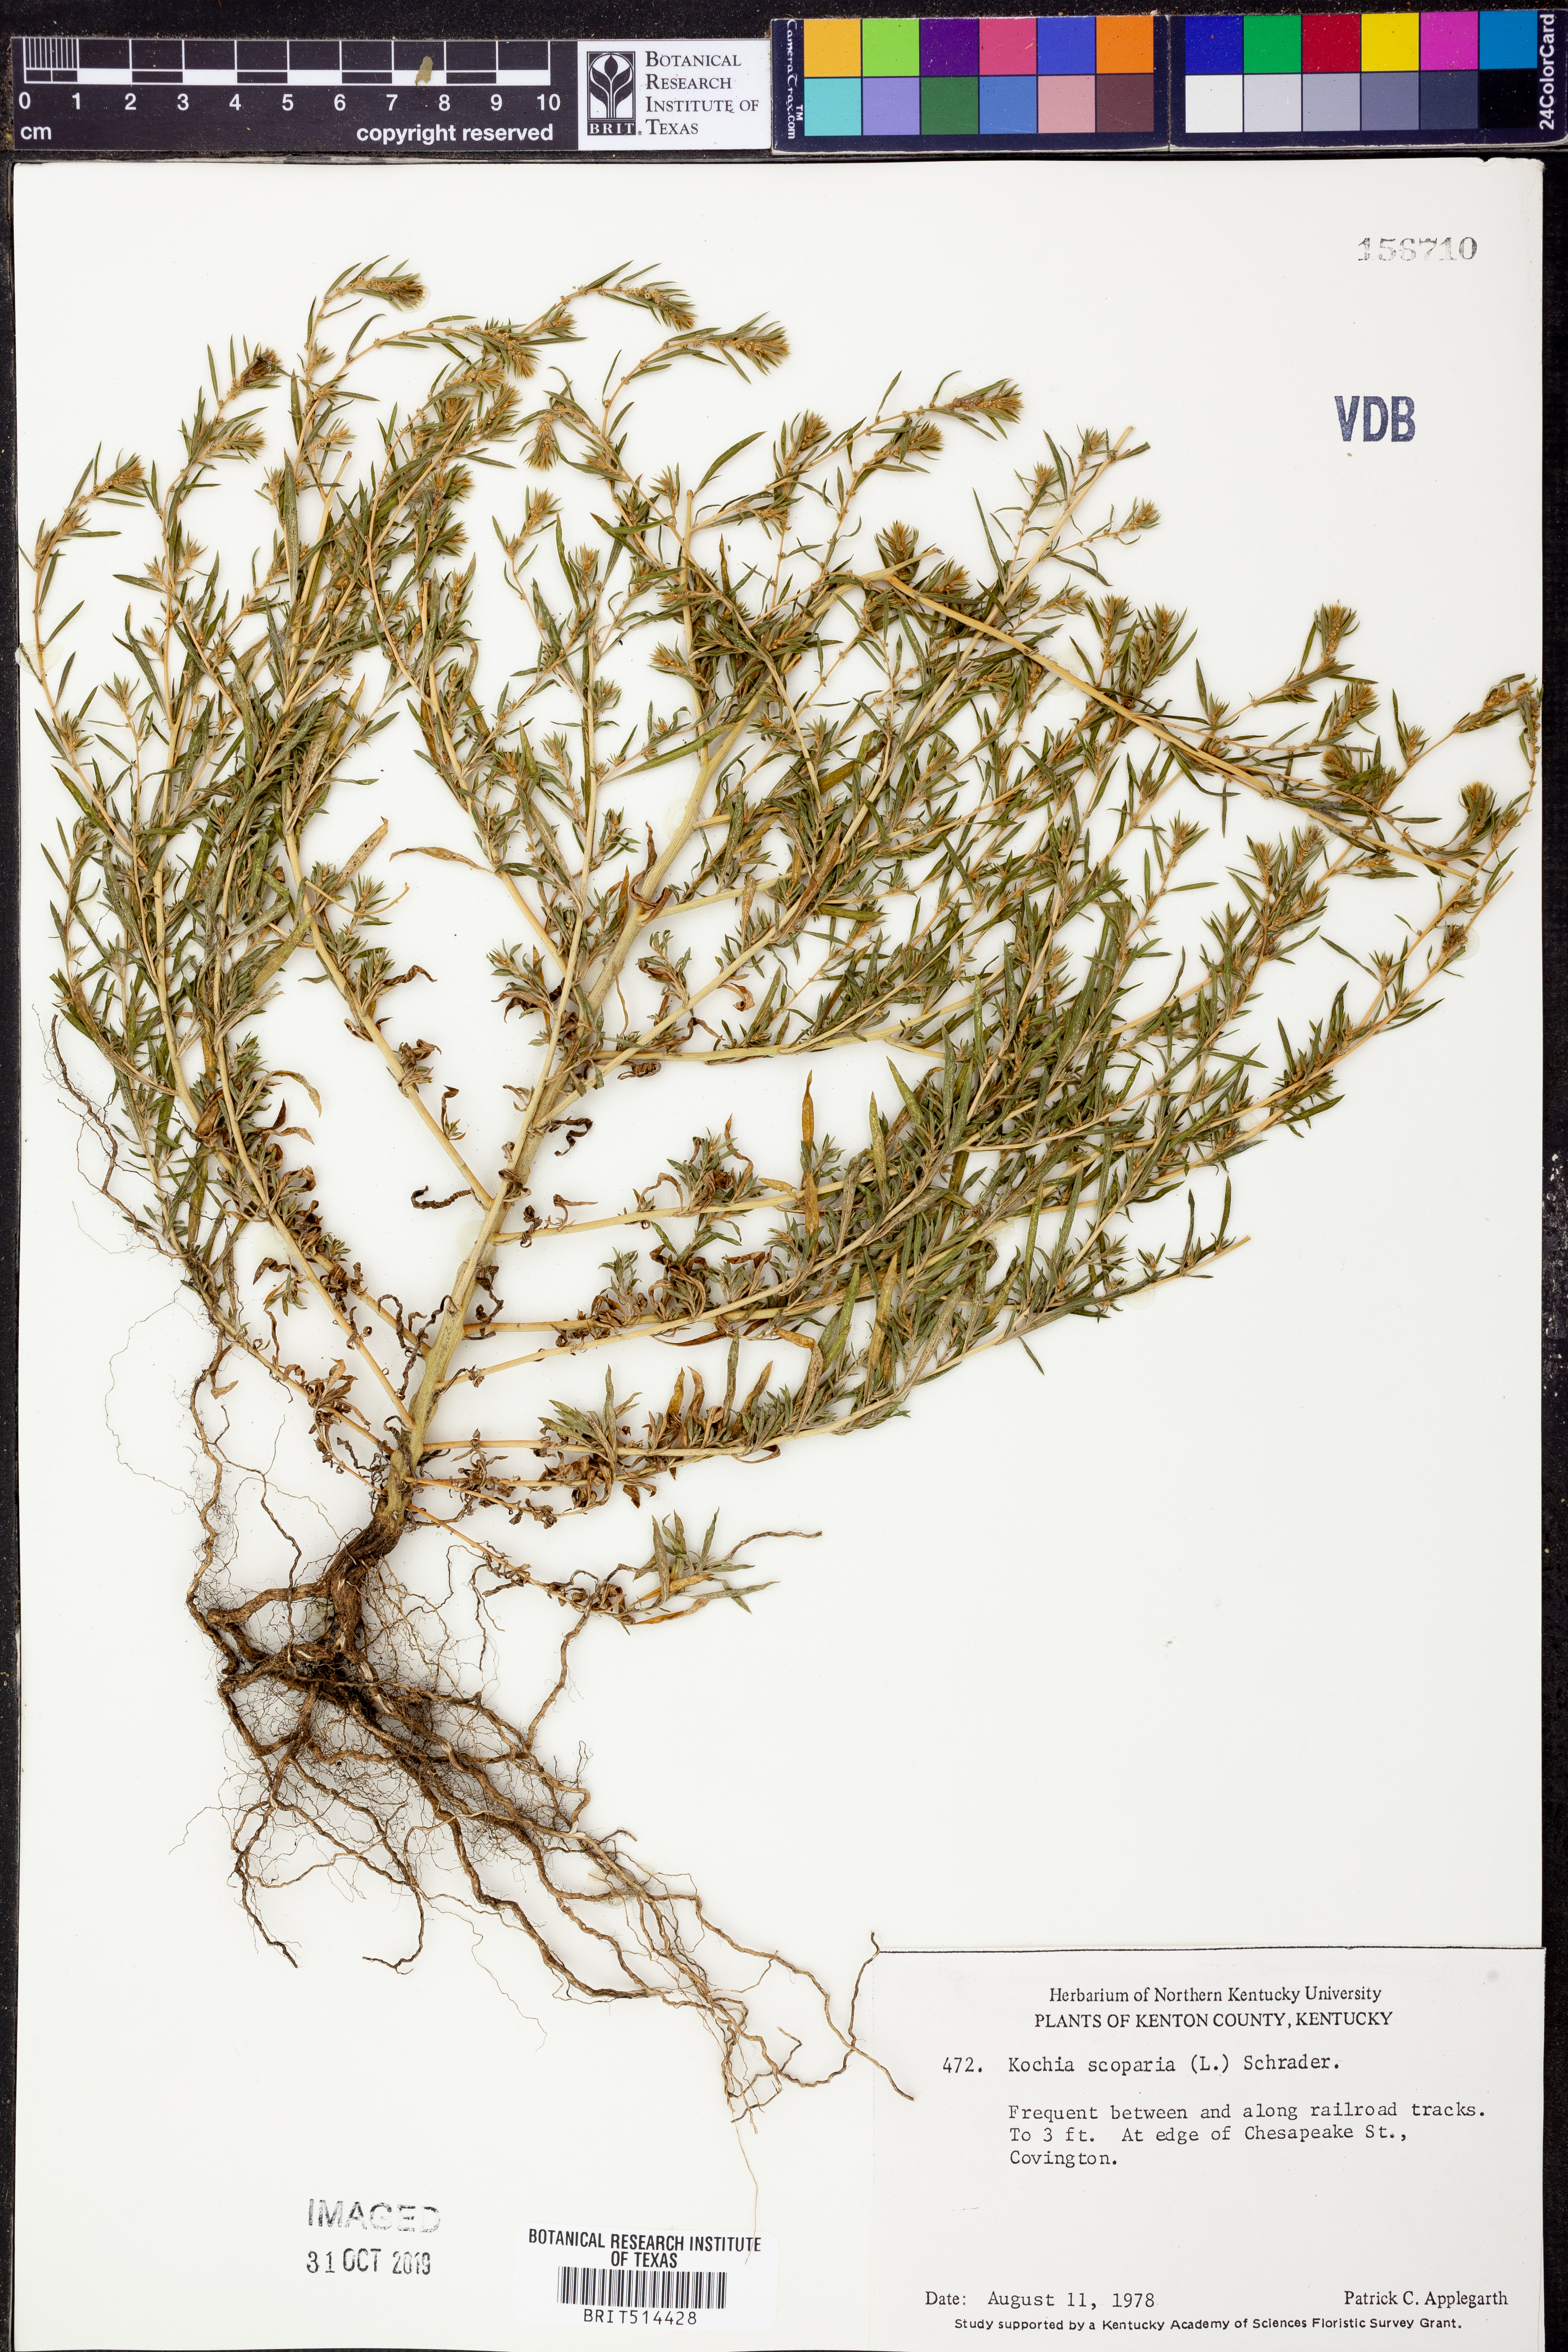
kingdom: Plantae
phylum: Tracheophyta
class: Magnoliopsida
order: Caryophyllales
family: Amaranthaceae
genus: Bassia
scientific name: Bassia scoparia
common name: Belvedere
